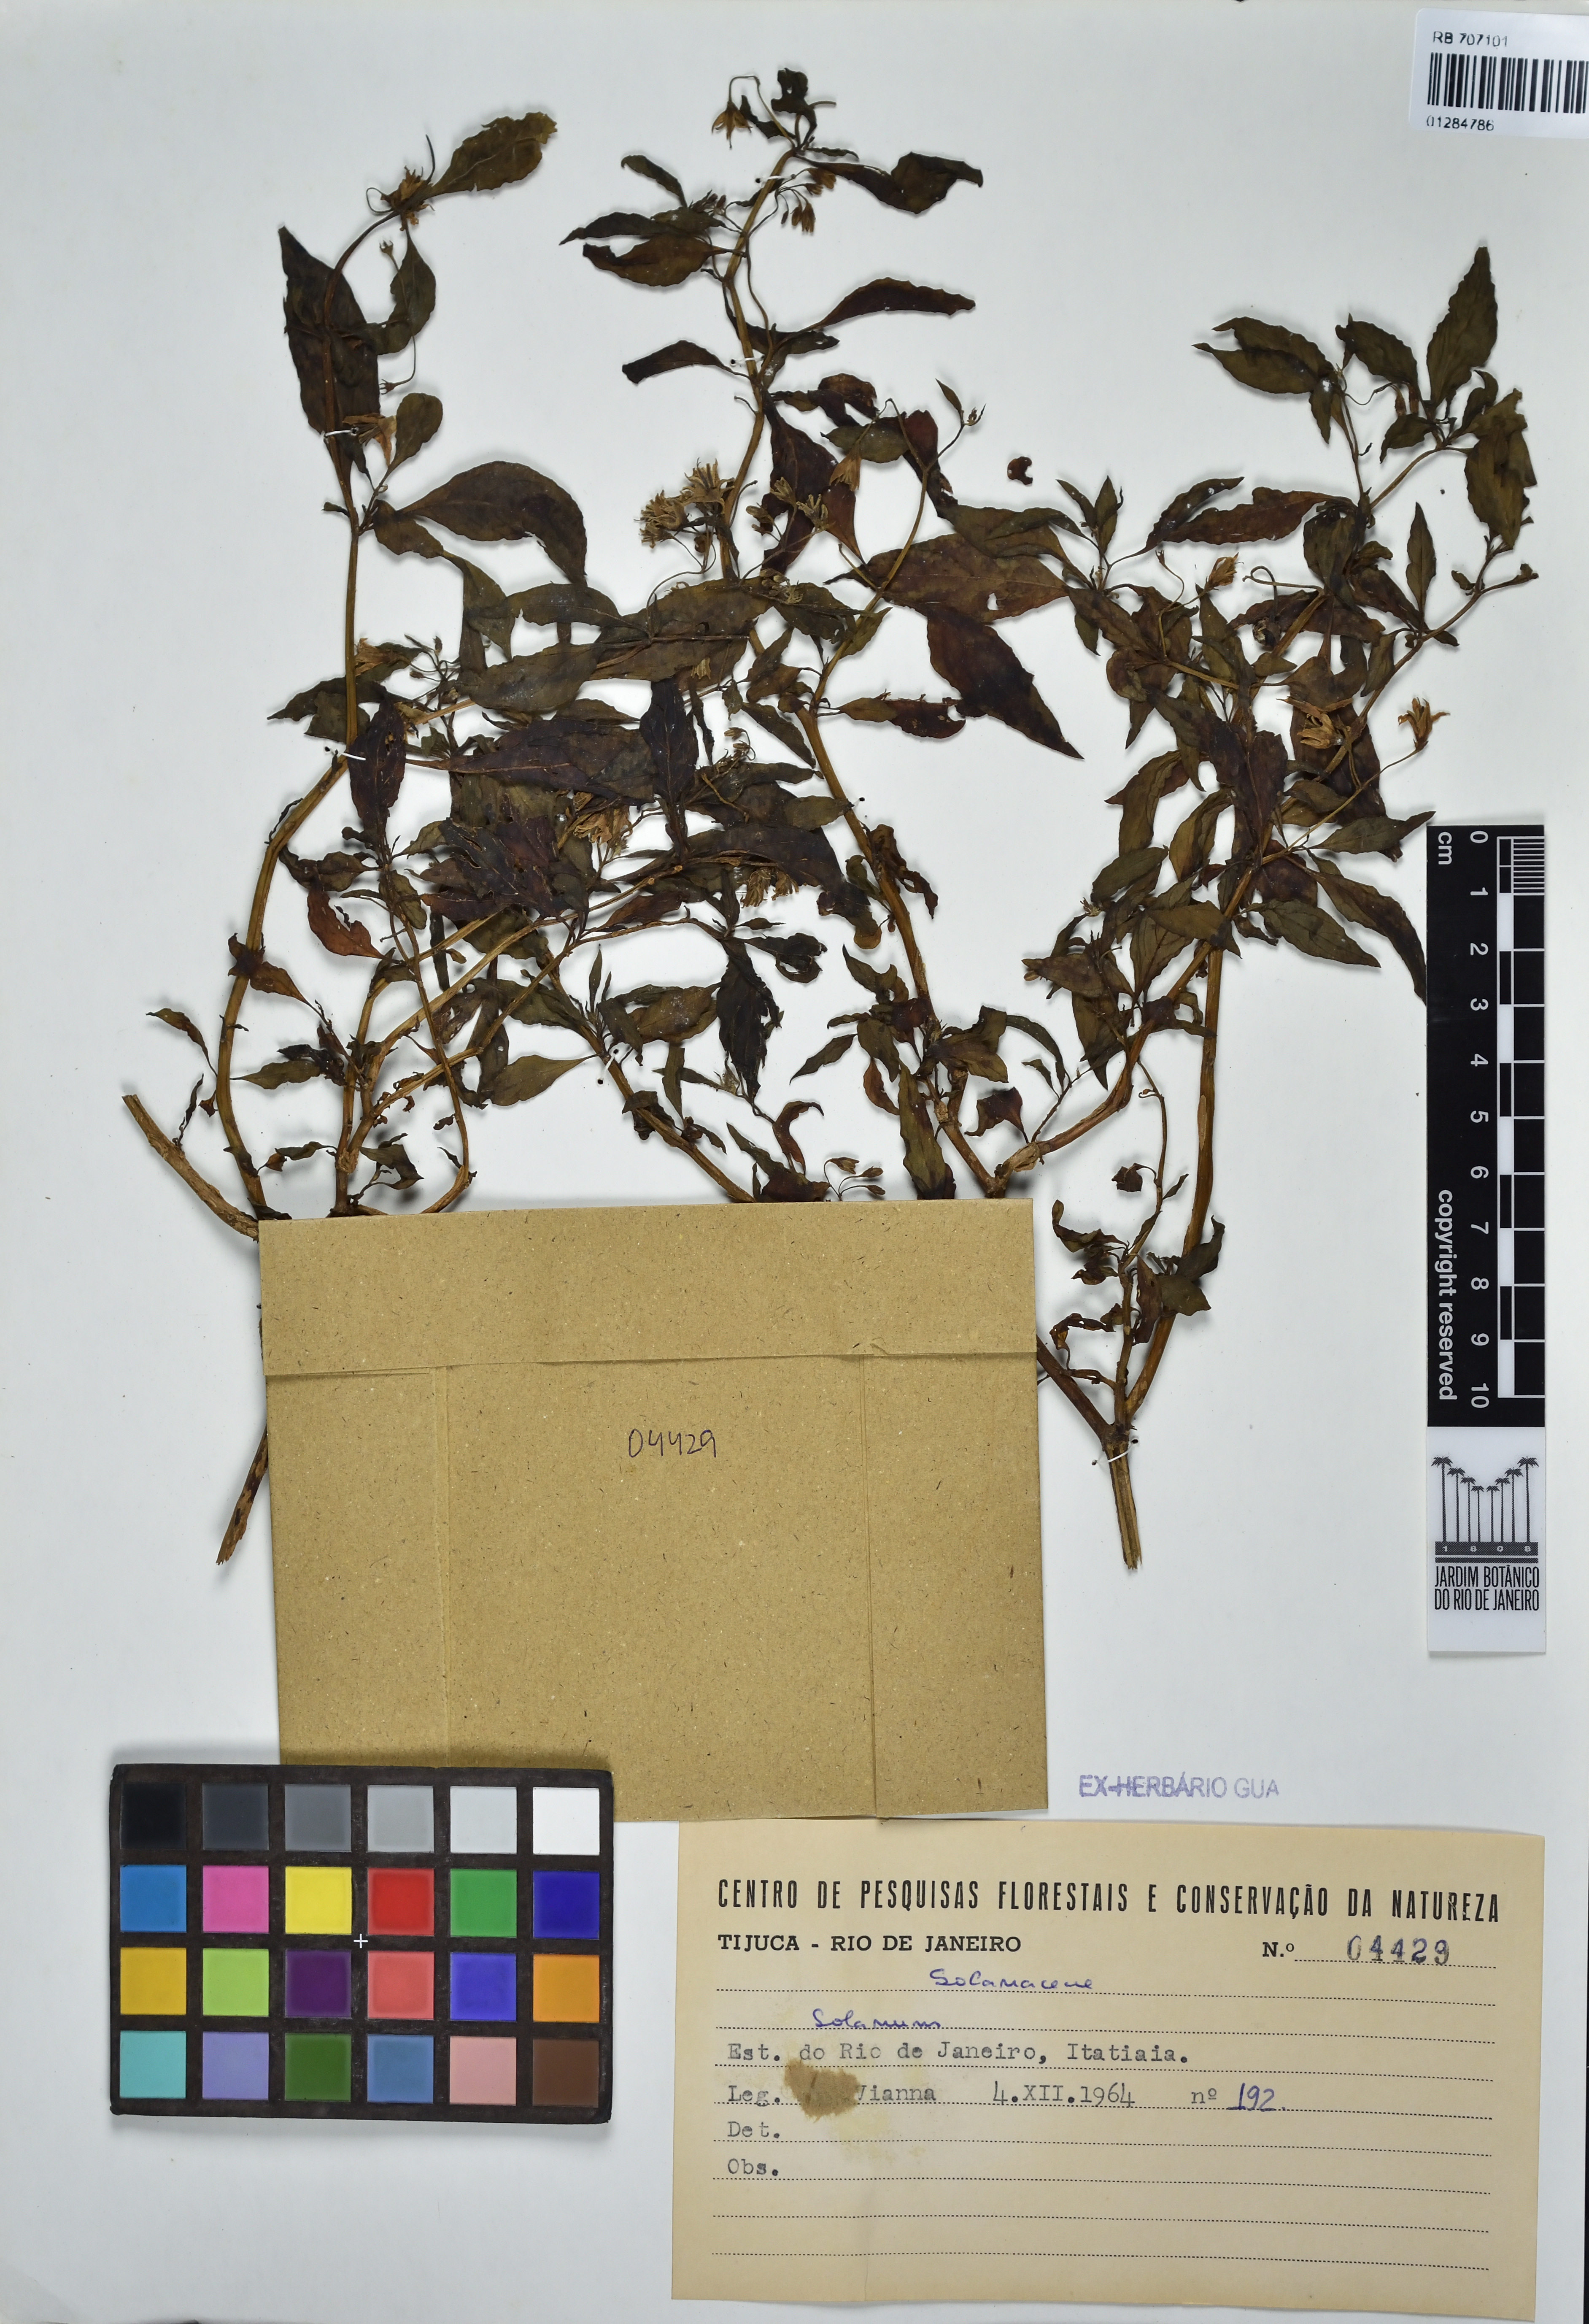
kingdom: Plantae
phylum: Tracheophyta
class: Magnoliopsida
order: Solanales
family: Solanaceae
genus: Solanum
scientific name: Solanum
